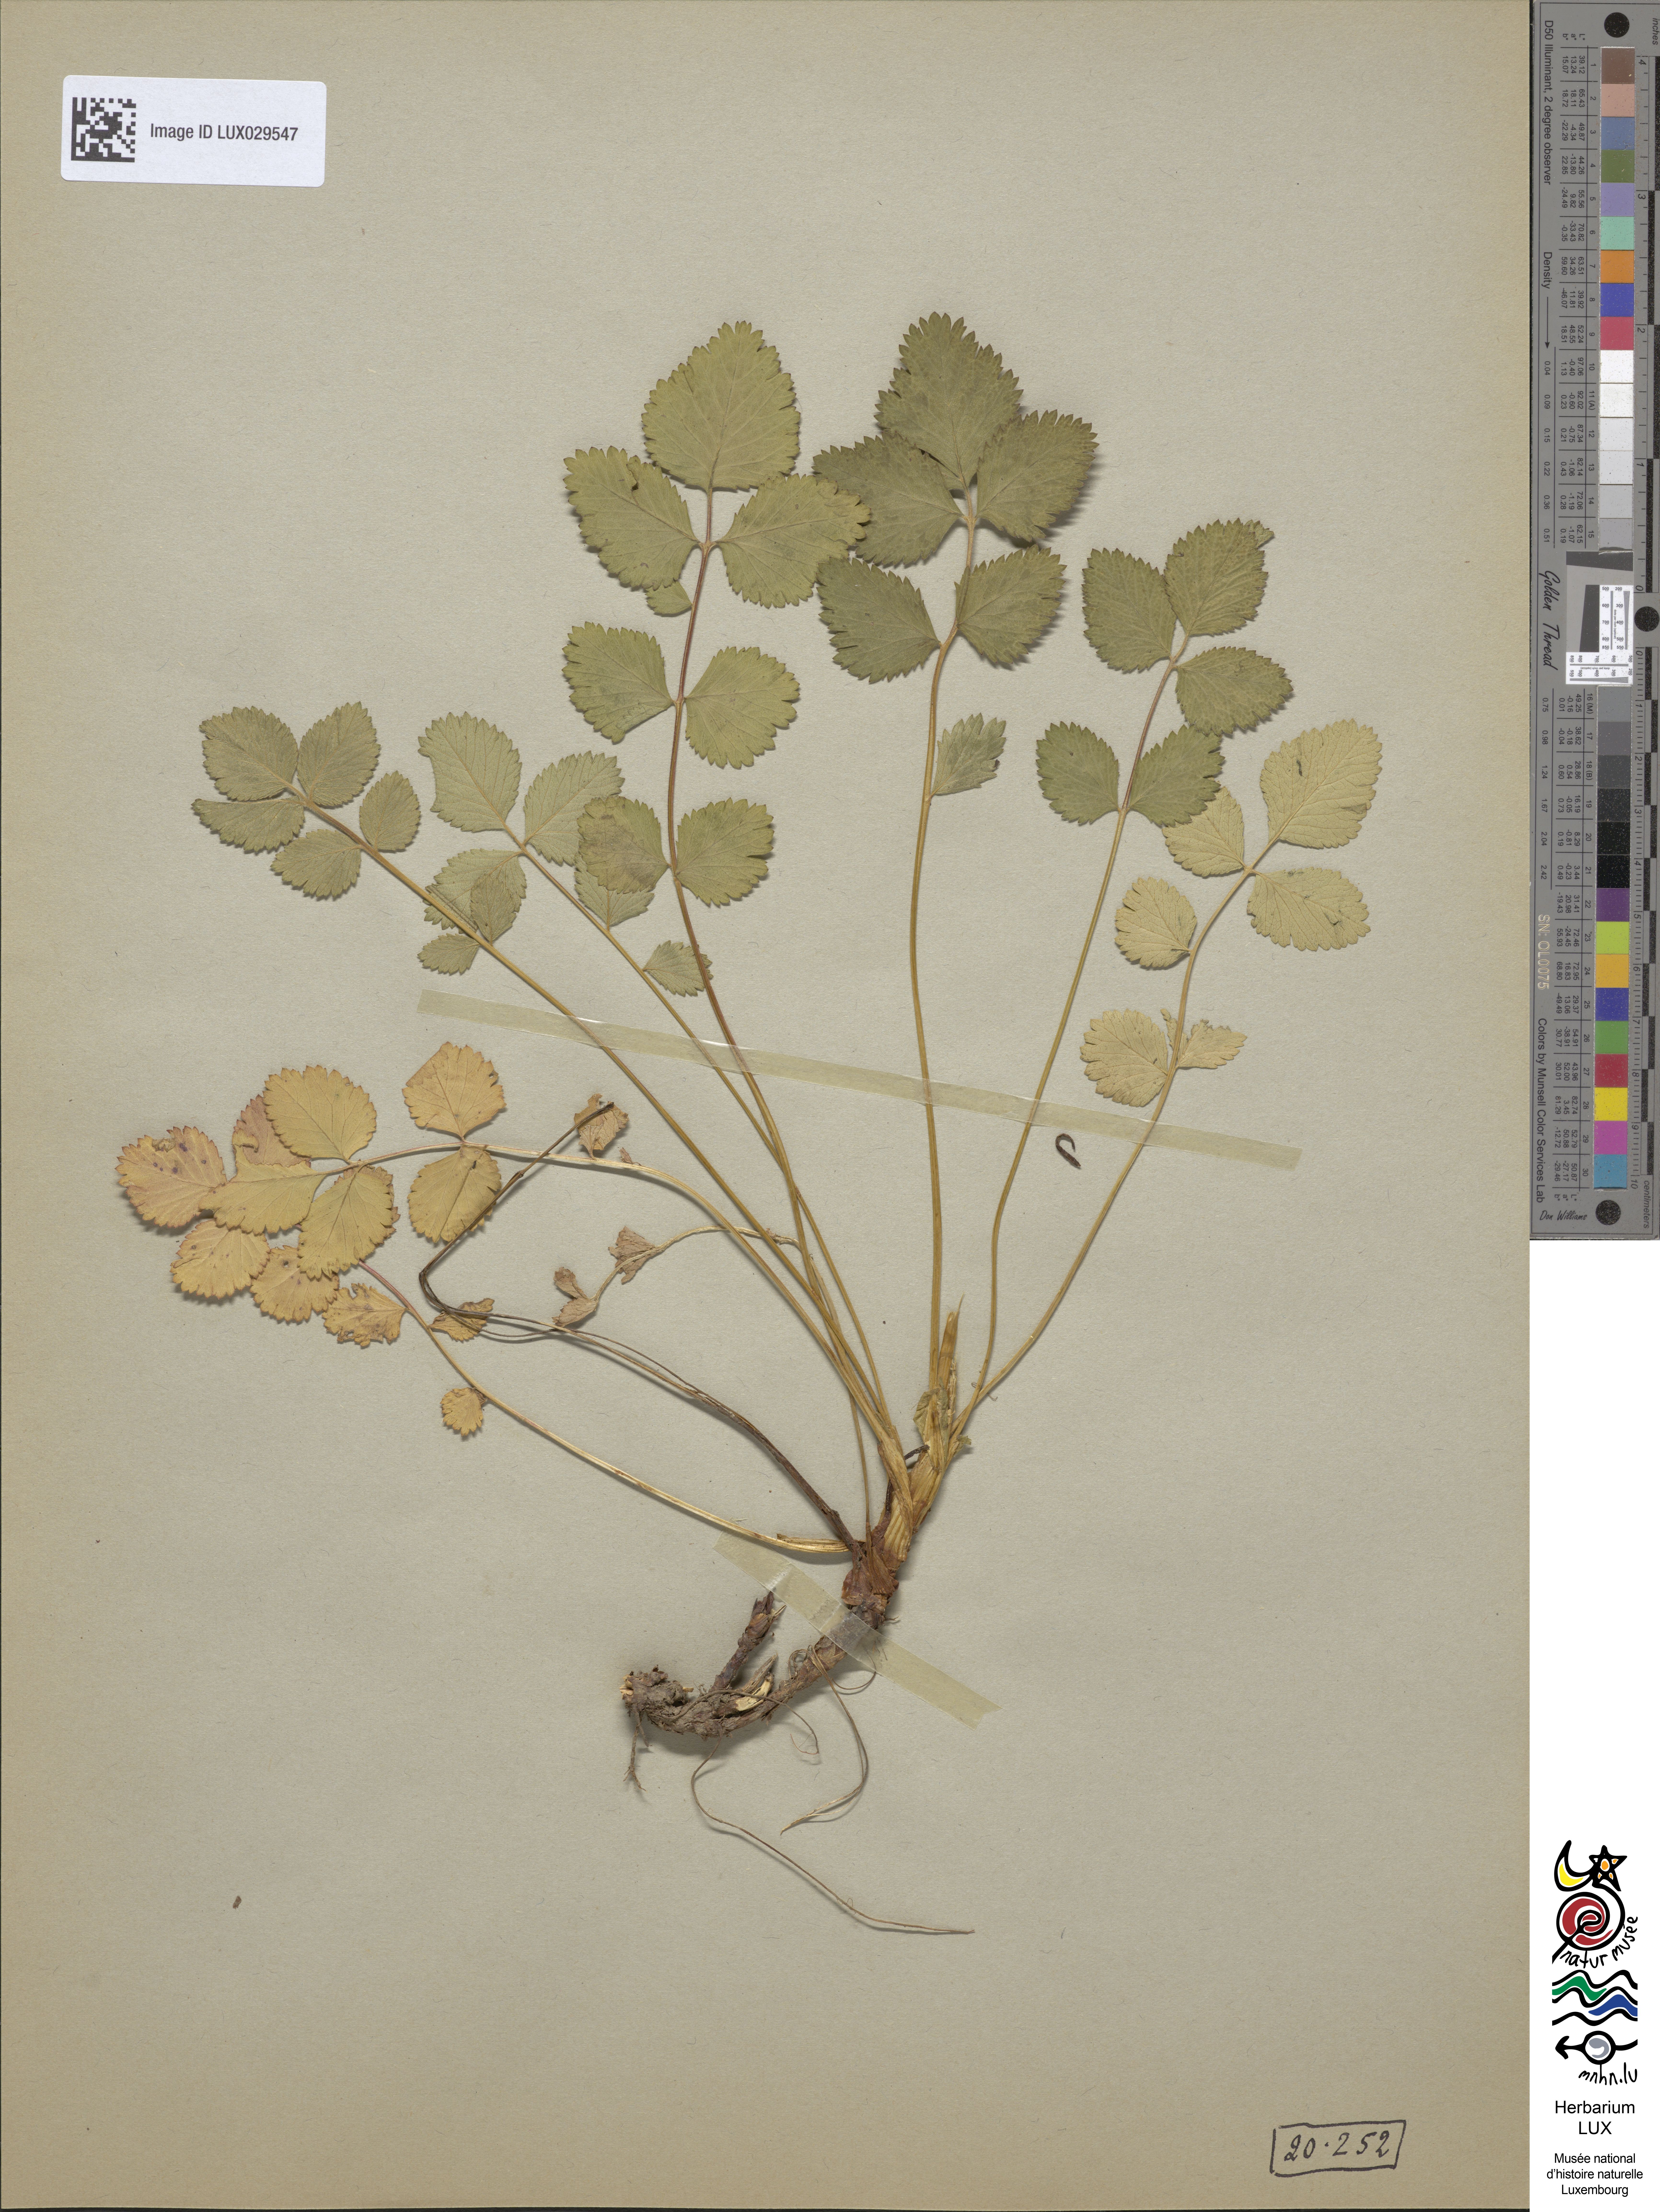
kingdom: Plantae
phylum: Tracheophyta
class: Magnoliopsida
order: Rosales
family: Rosaceae
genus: Drymocallis
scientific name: Drymocallis rupestris
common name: Rock cinquefoil
